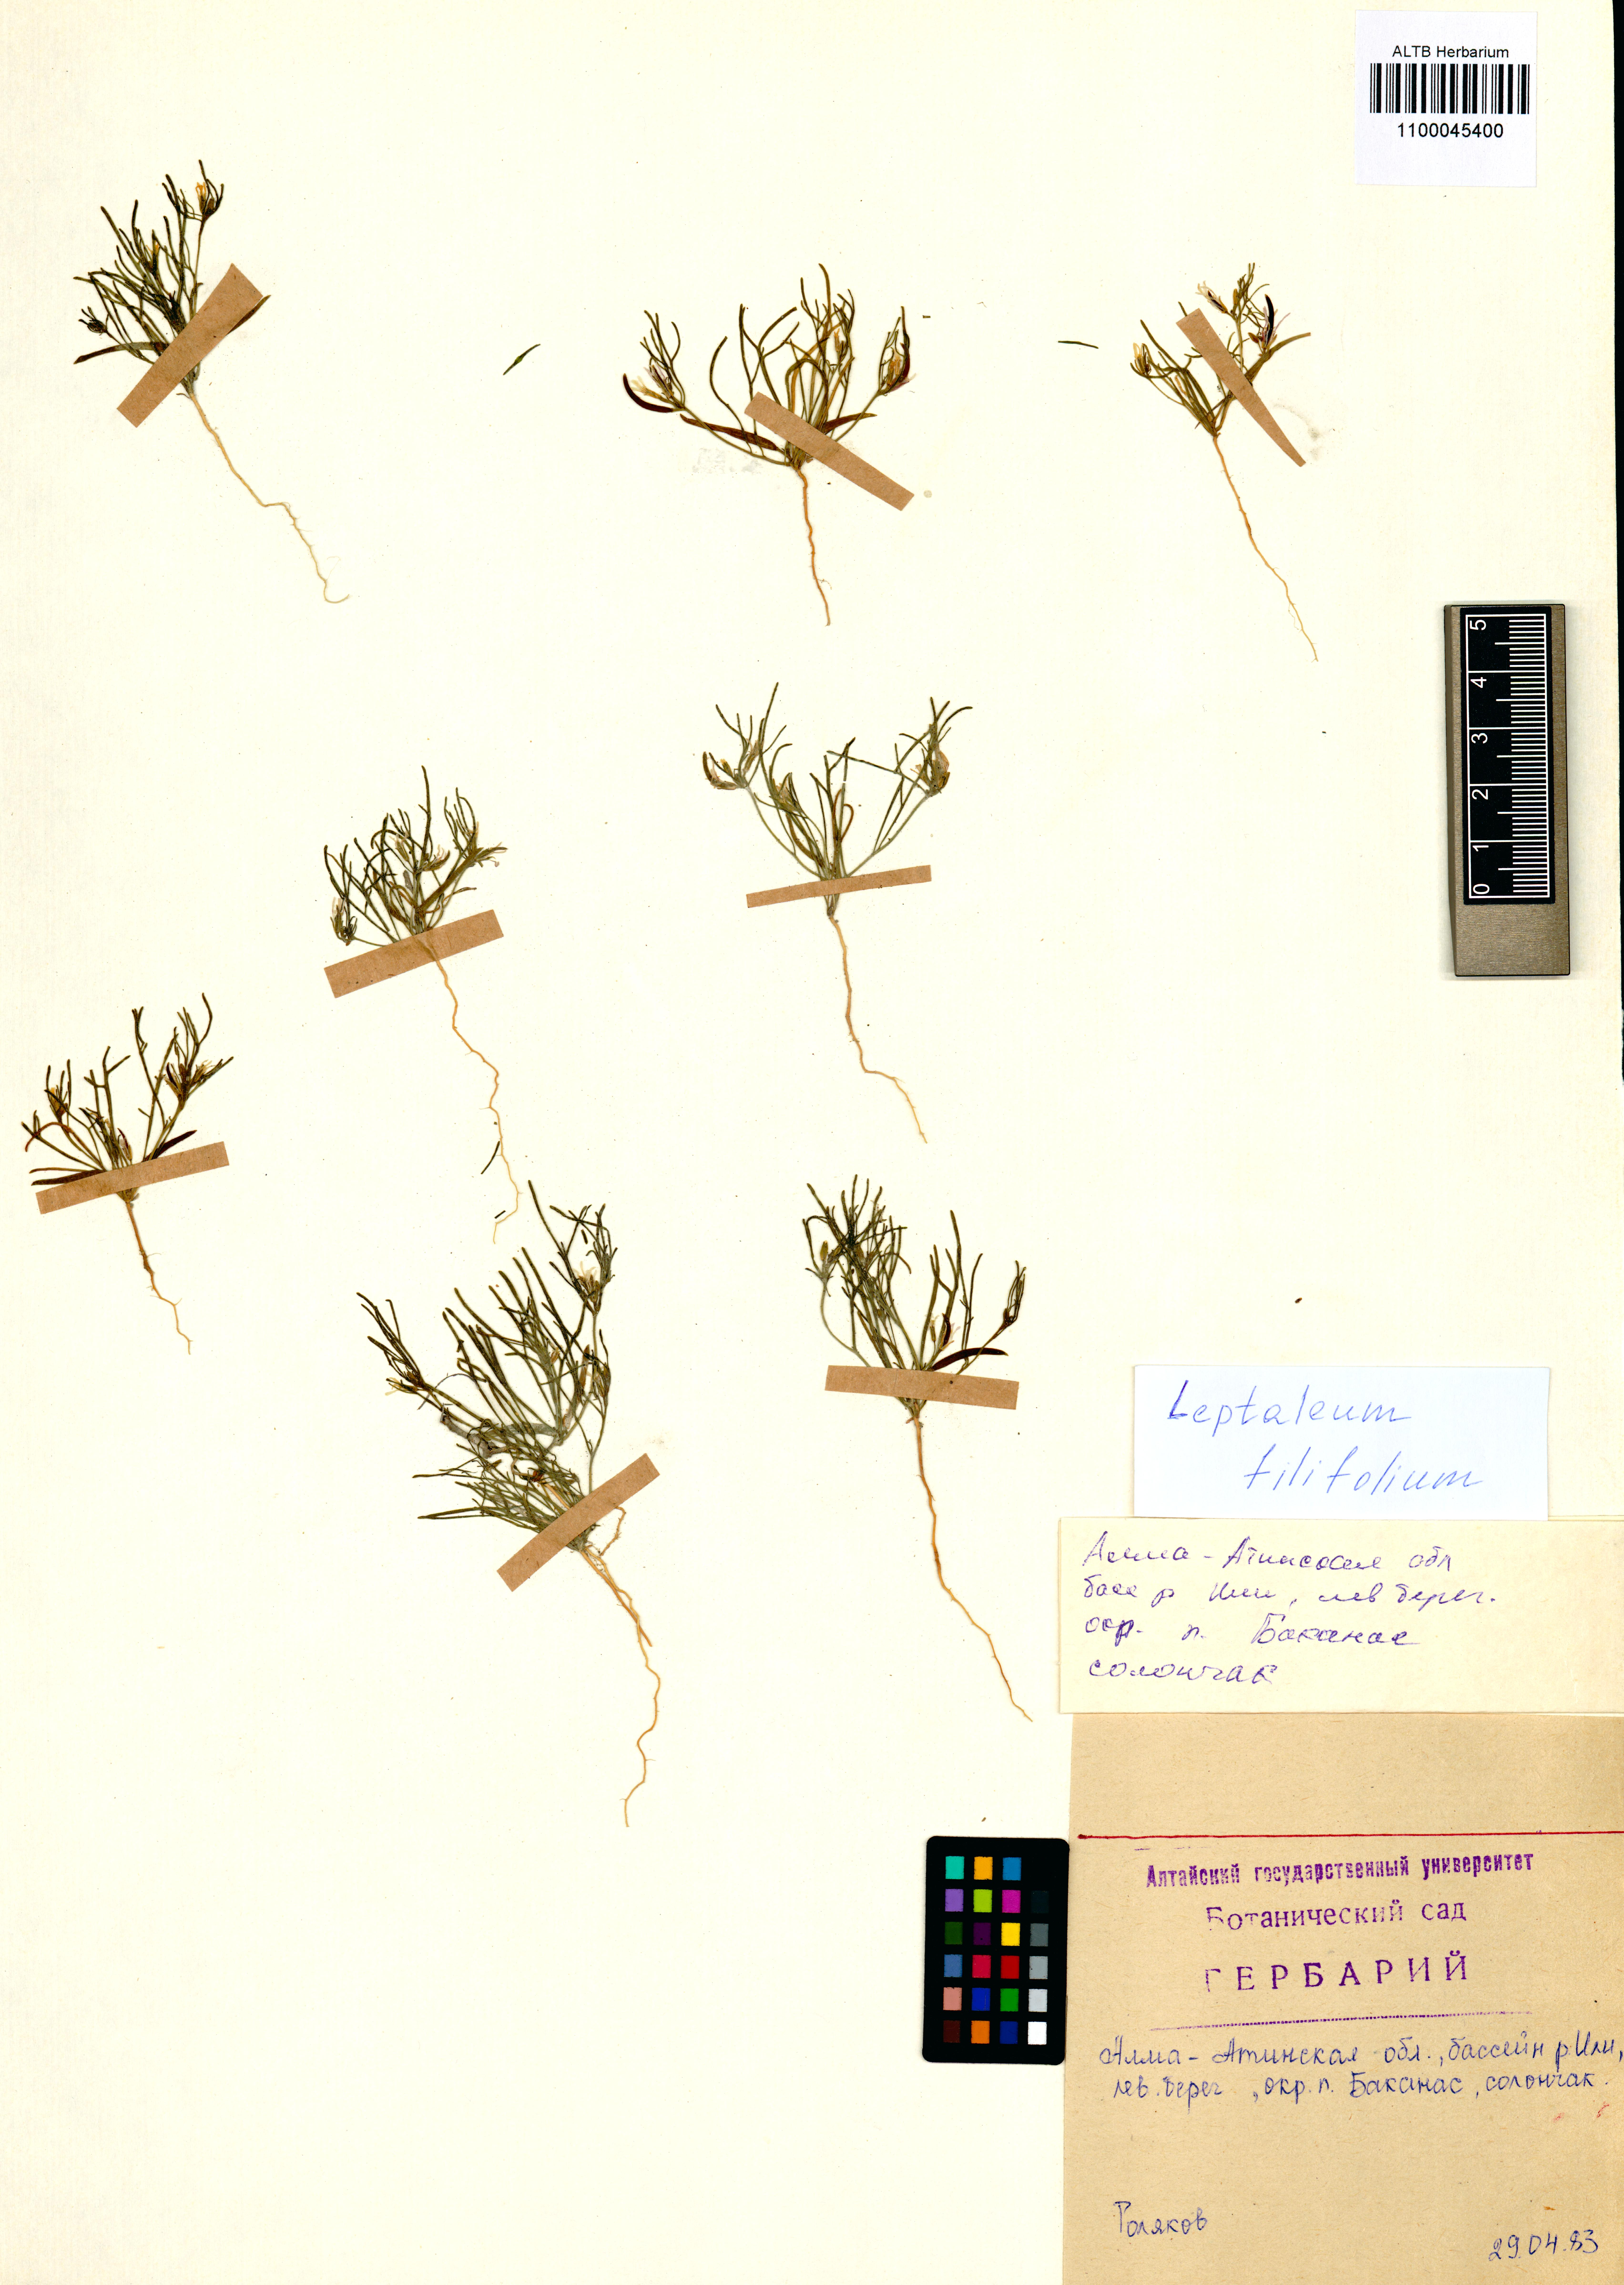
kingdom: Plantae
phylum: Tracheophyta
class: Magnoliopsida
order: Brassicales
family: Brassicaceae
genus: Leptaleum
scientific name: Leptaleum filifolium
